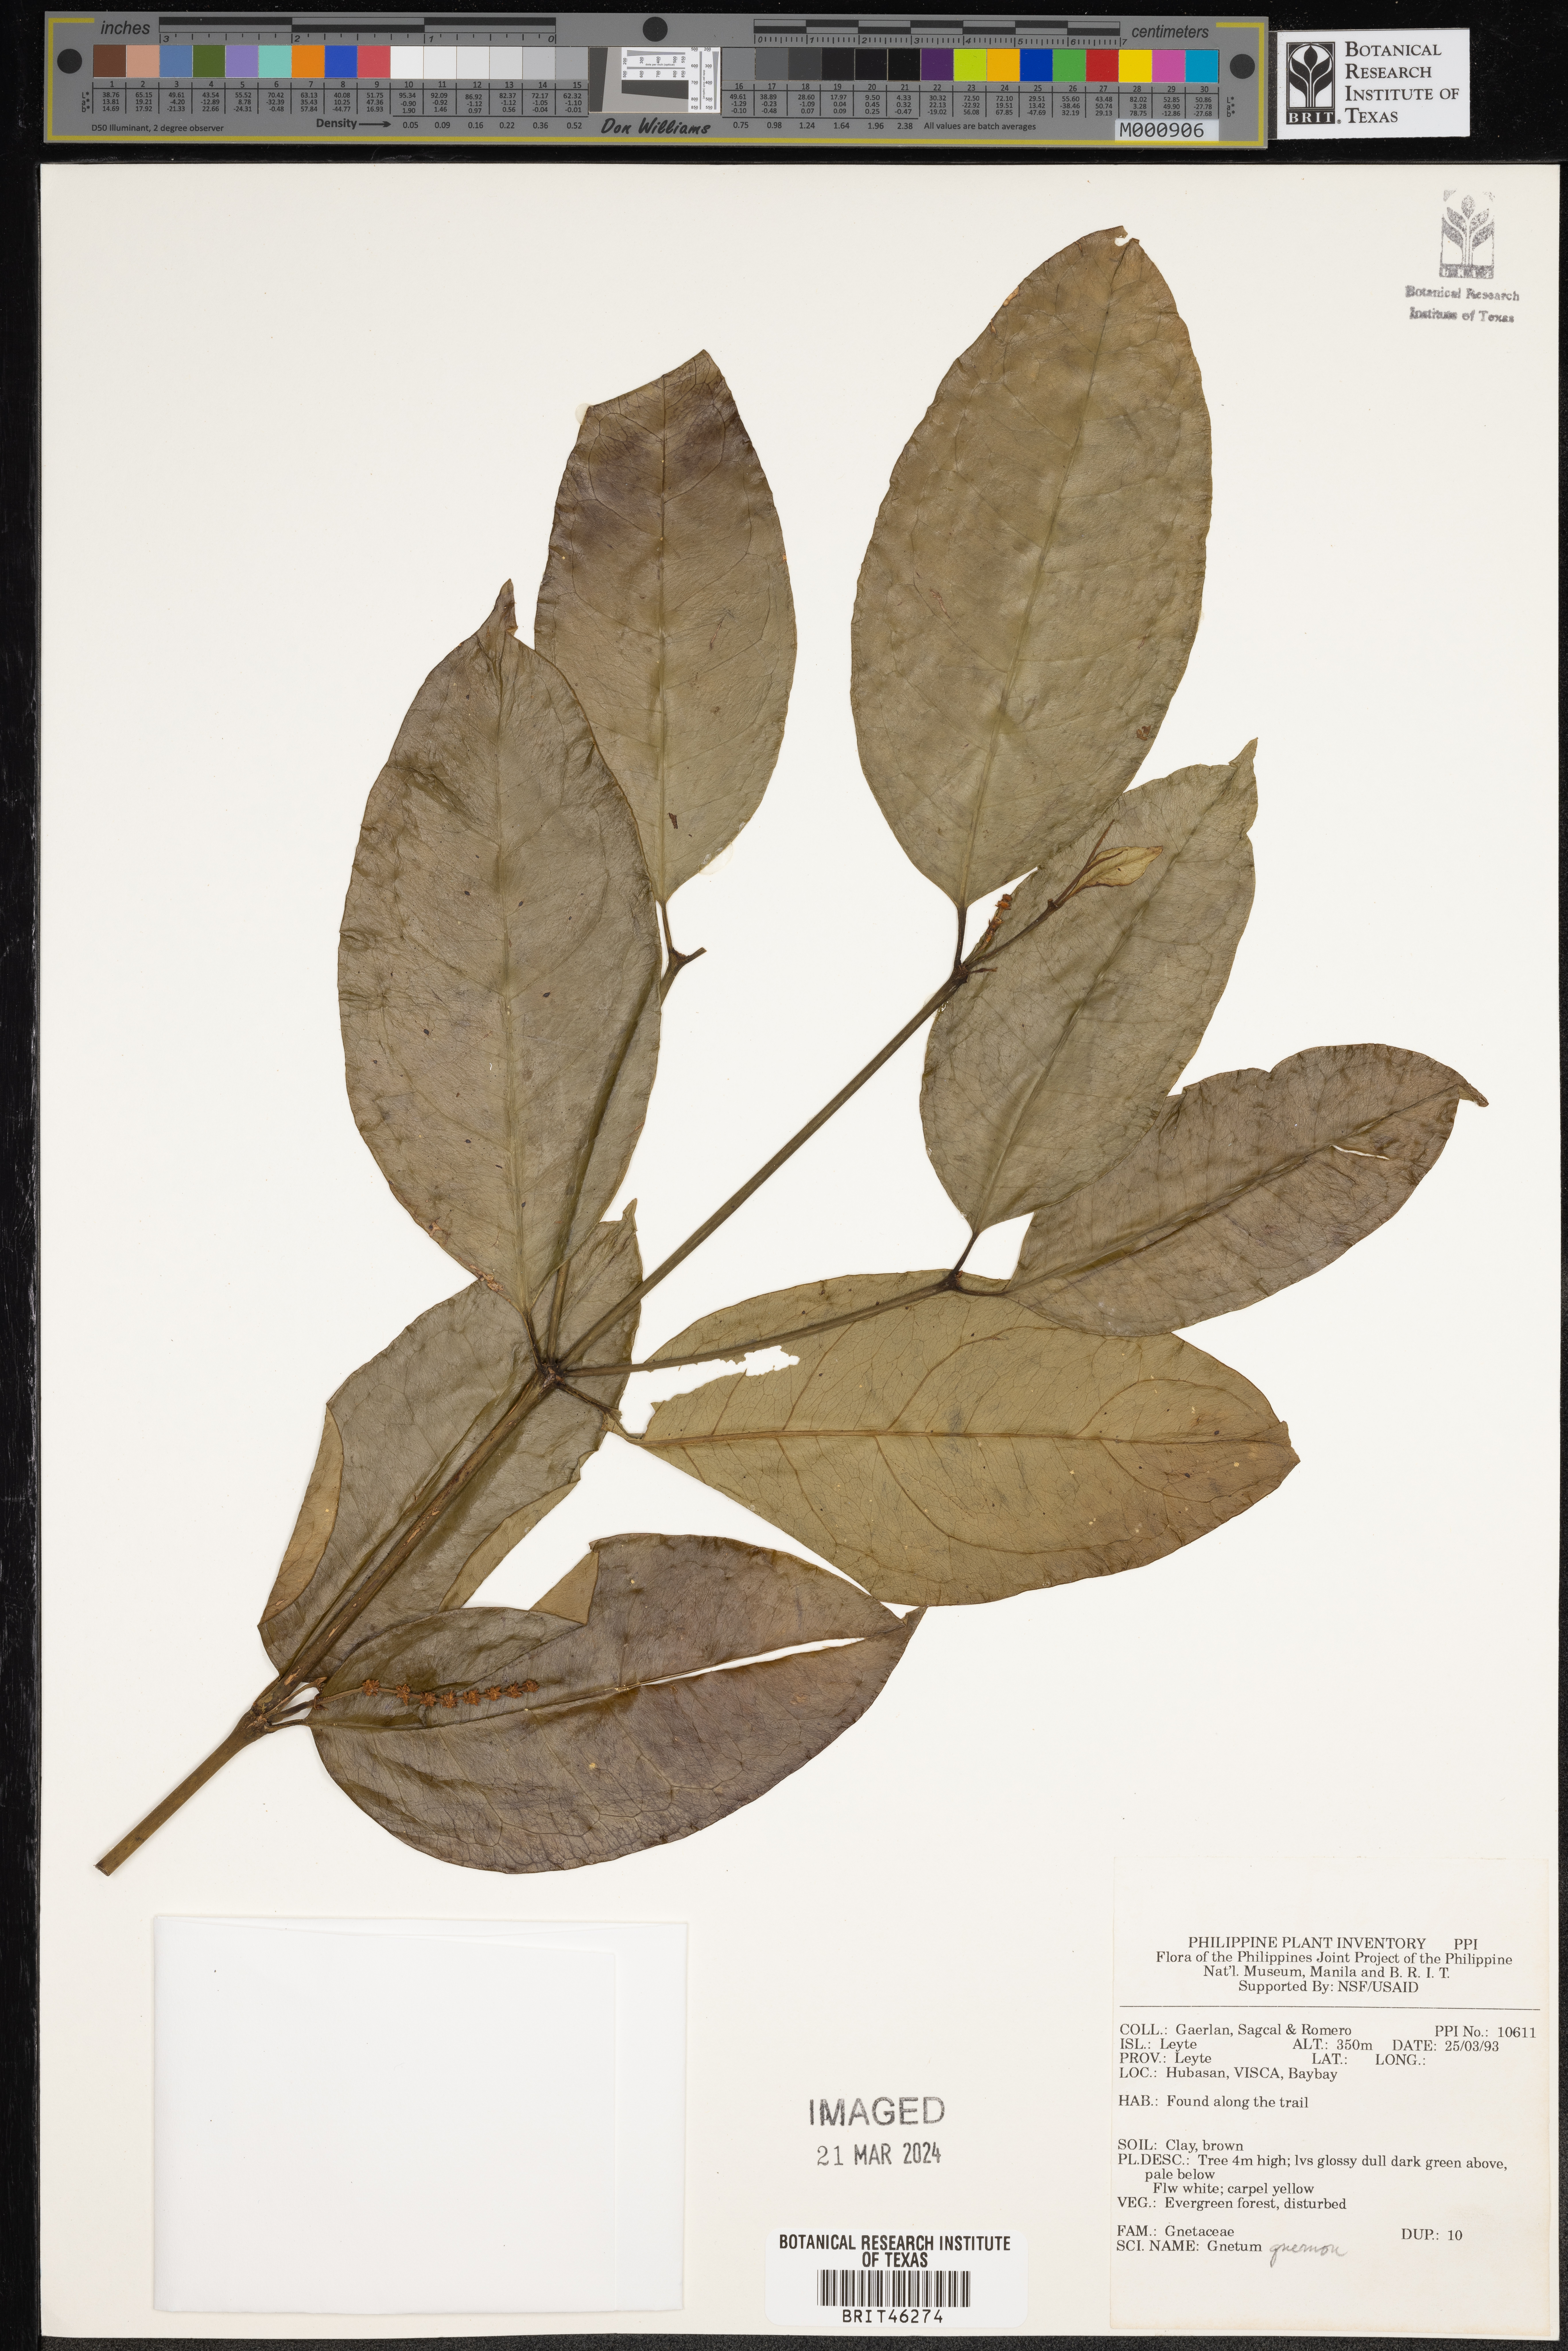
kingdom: Plantae
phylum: Tracheophyta
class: Gnetopsida
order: Gnetales
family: Gnetaceae
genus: Gnetum
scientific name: Gnetum gnemon
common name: Spanish joint-fir
